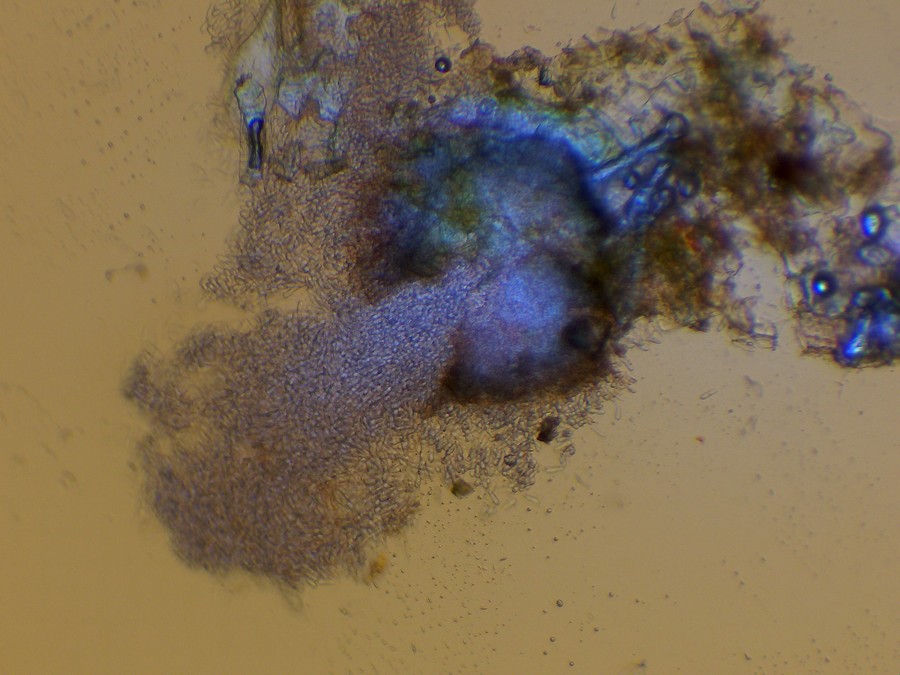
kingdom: Fungi
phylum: Ascomycota
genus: Diplosporonema
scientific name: Diplosporonema delastrei
